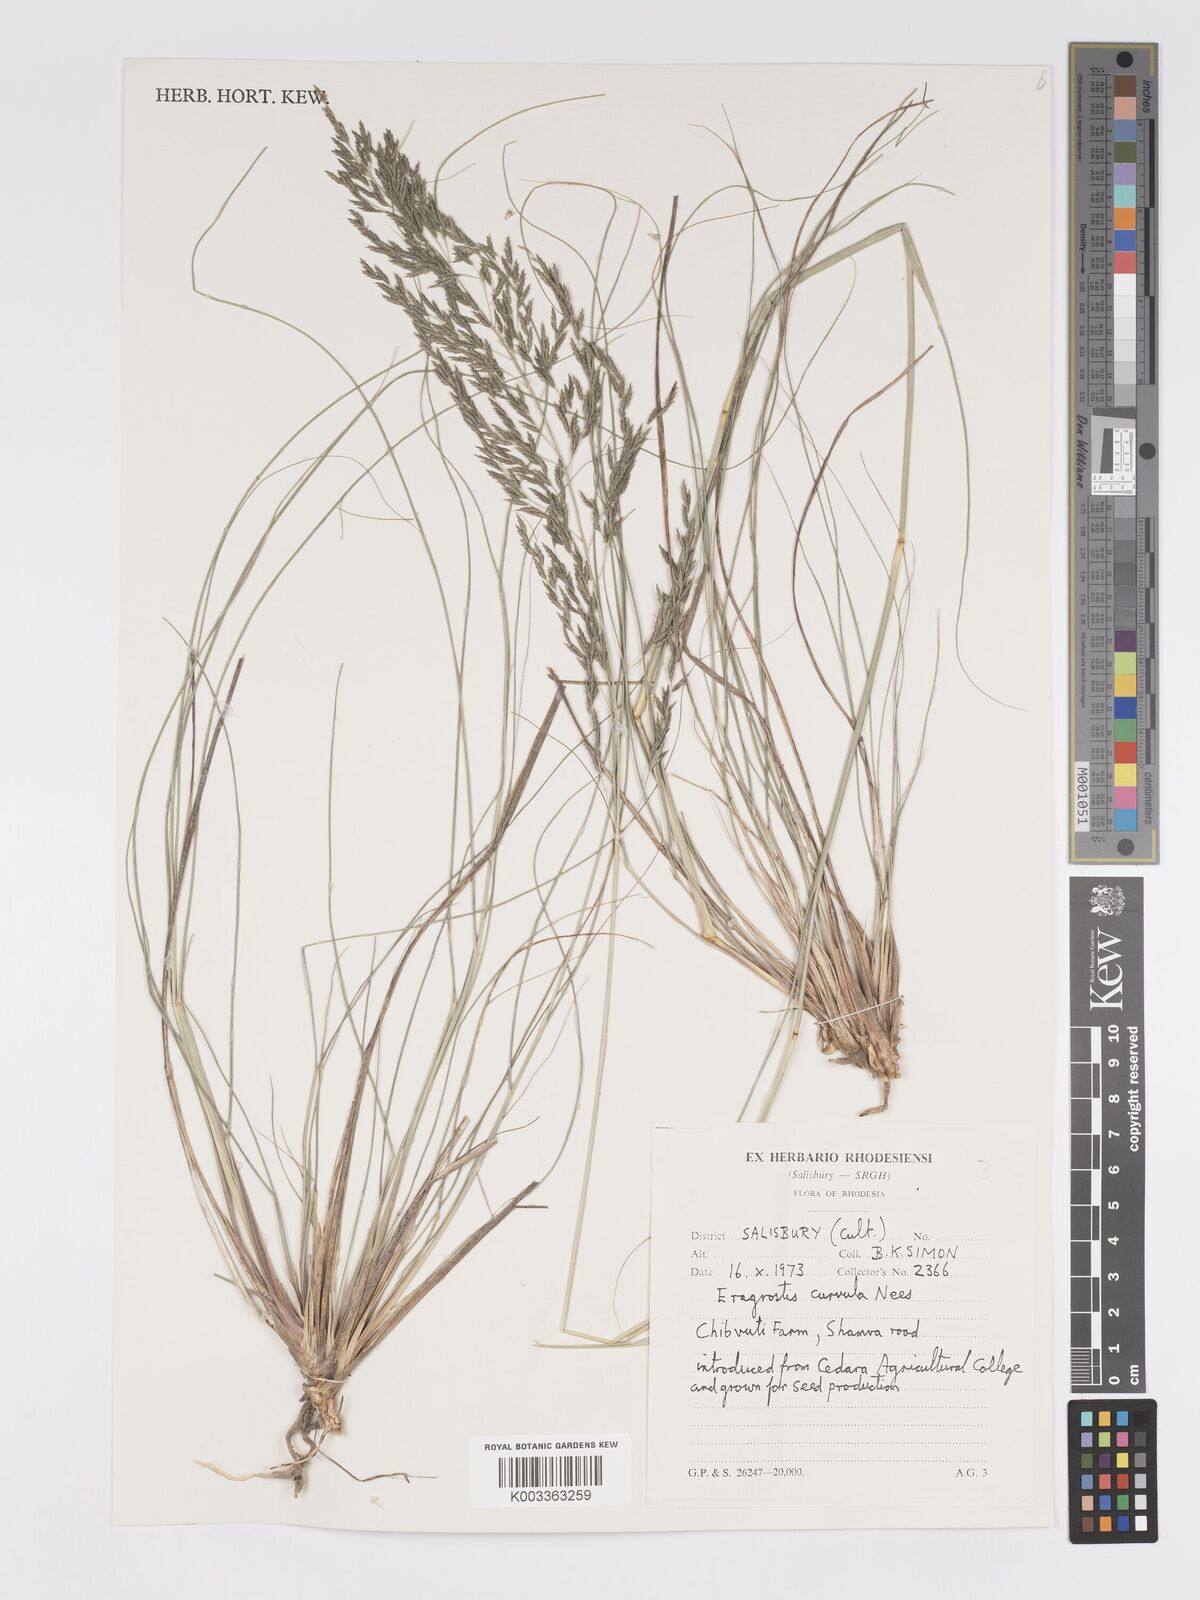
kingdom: Plantae
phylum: Tracheophyta
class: Liliopsida
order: Poales
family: Poaceae
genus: Eragrostis
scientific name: Eragrostis curvula
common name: African love-grass
